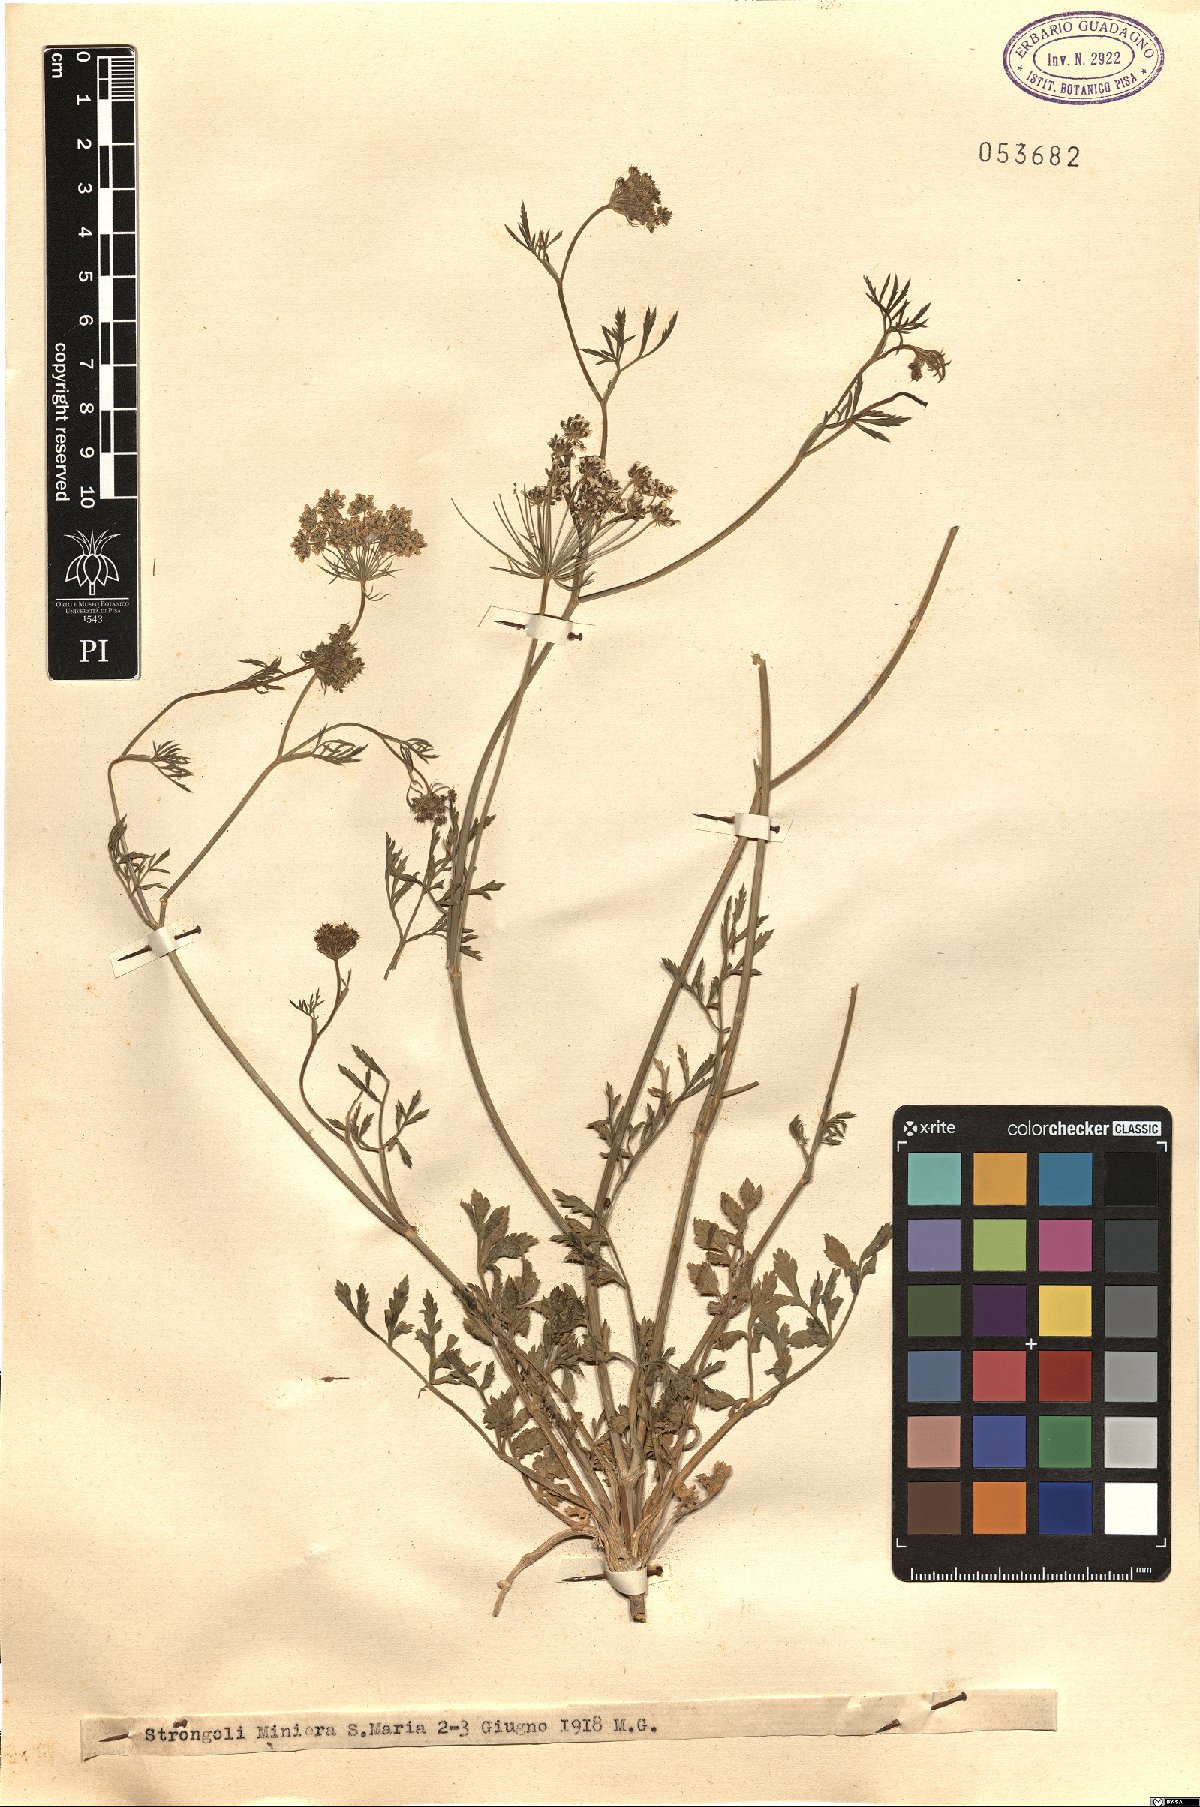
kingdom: Plantae
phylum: Tracheophyta
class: Magnoliopsida
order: Apiales
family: Apiaceae
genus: Ammi
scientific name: Ammi
